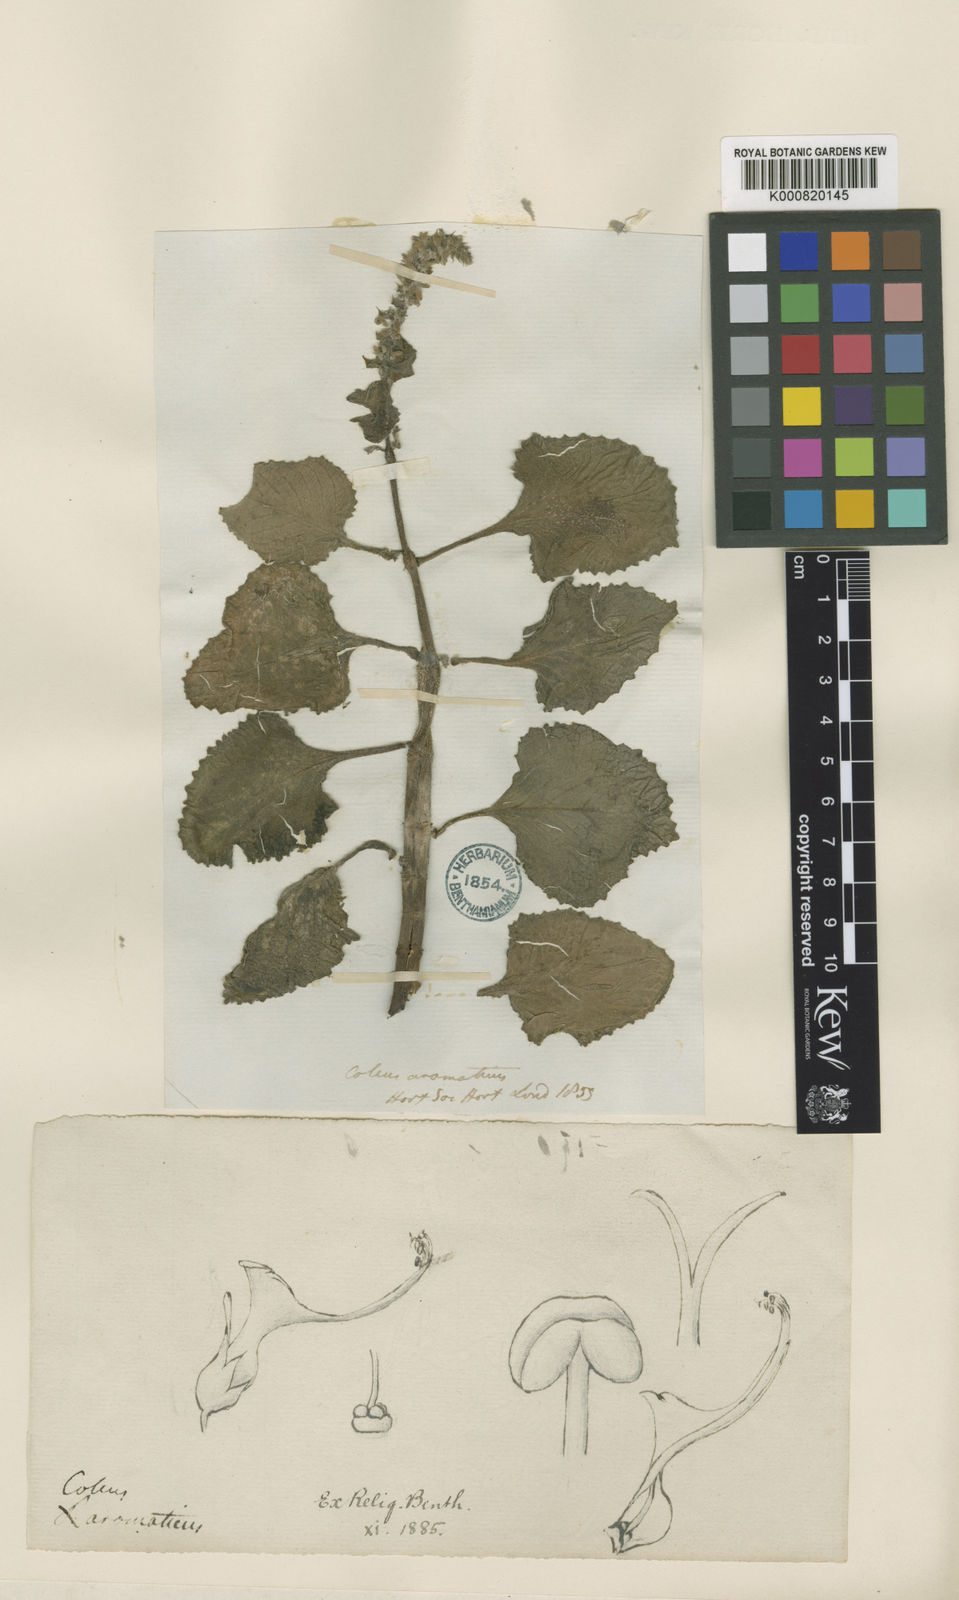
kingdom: Plantae
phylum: Tracheophyta
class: Magnoliopsida
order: Lamiales
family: Lamiaceae
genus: Coleus
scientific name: Coleus scutellarioides
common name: Coleus
